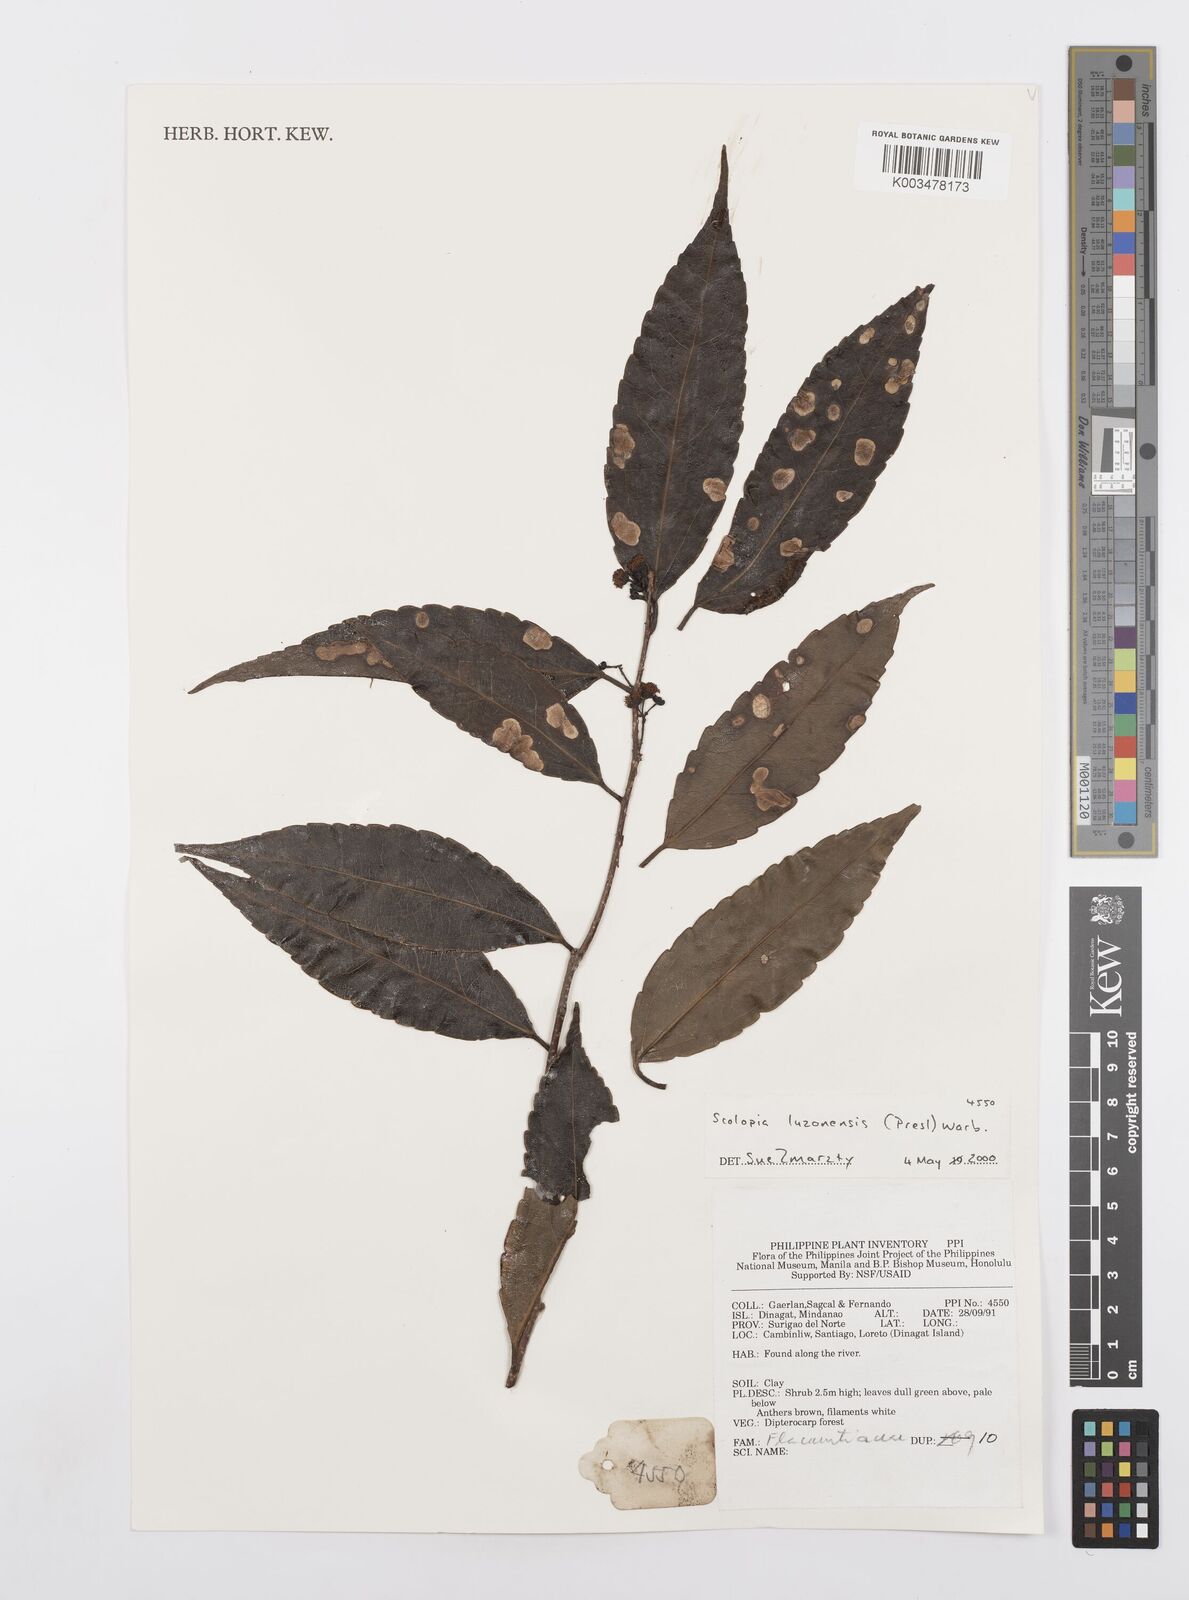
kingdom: Plantae
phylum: Tracheophyta
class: Magnoliopsida
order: Malpighiales
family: Salicaceae
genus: Scolopia
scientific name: Scolopia luzonensis
